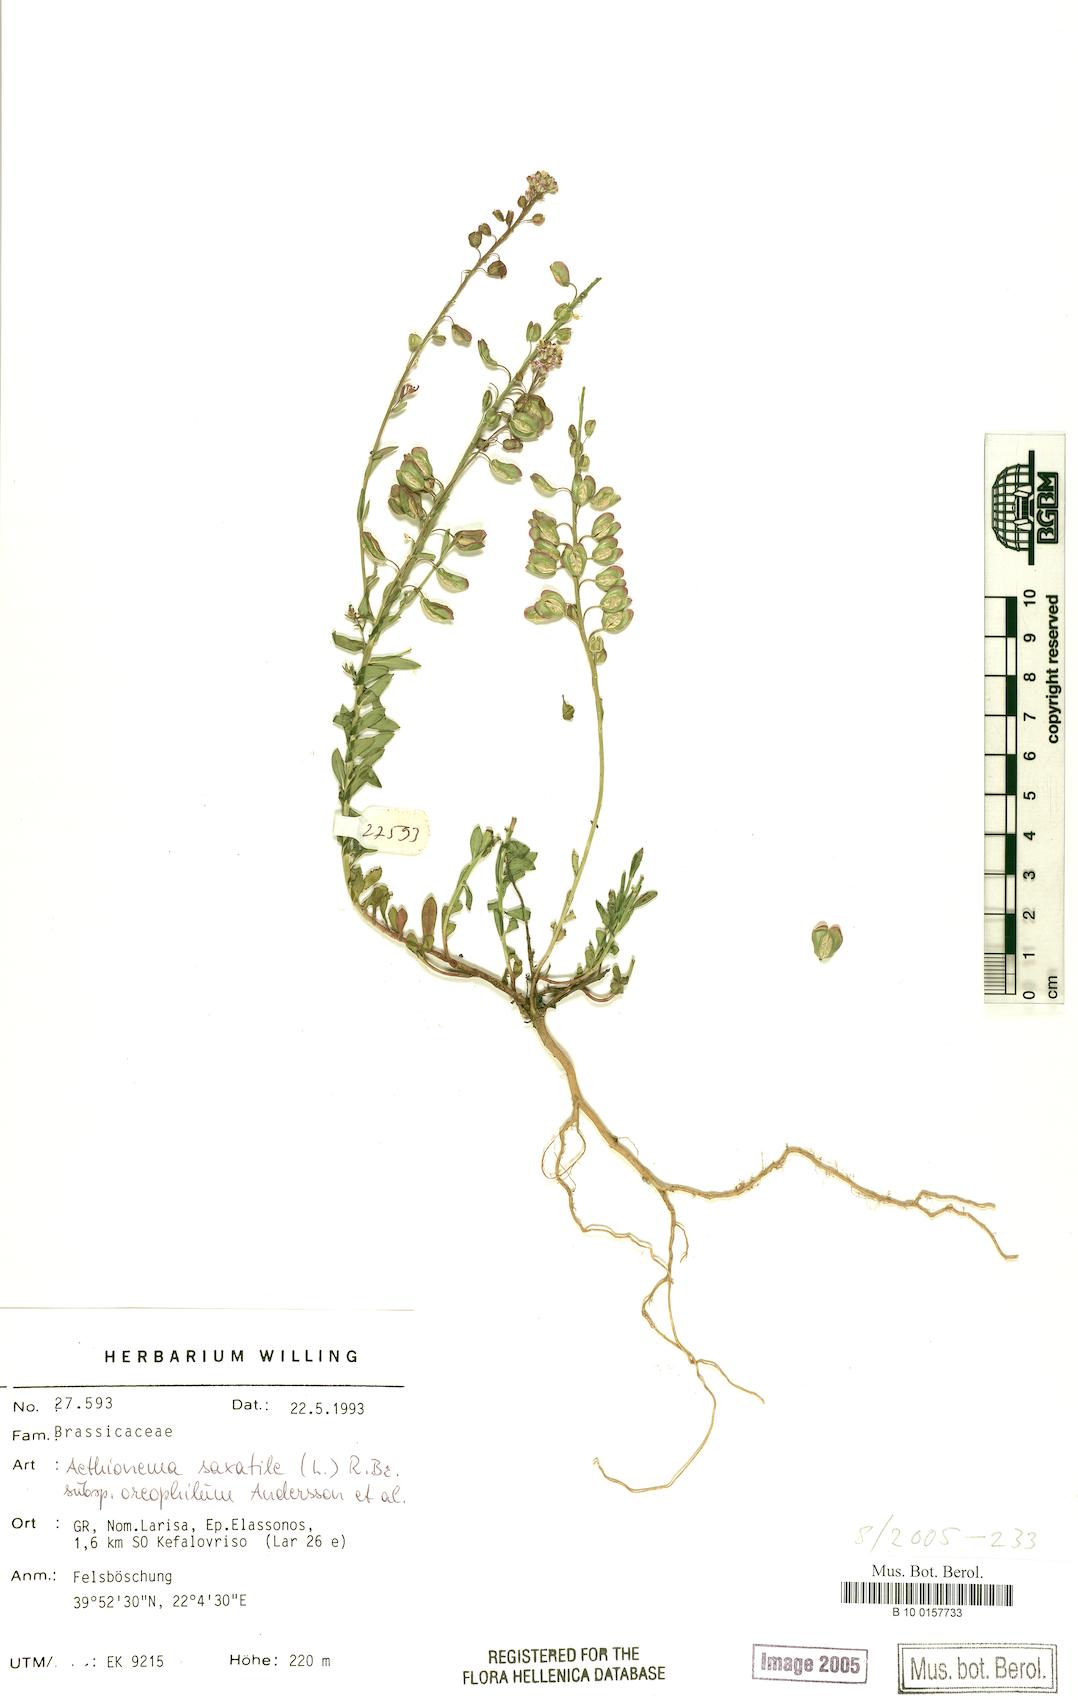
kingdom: Plantae
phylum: Tracheophyta
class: Magnoliopsida
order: Brassicales
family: Brassicaceae
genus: Aethionema
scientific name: Aethionema saxatile
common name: Burnt candytuft
